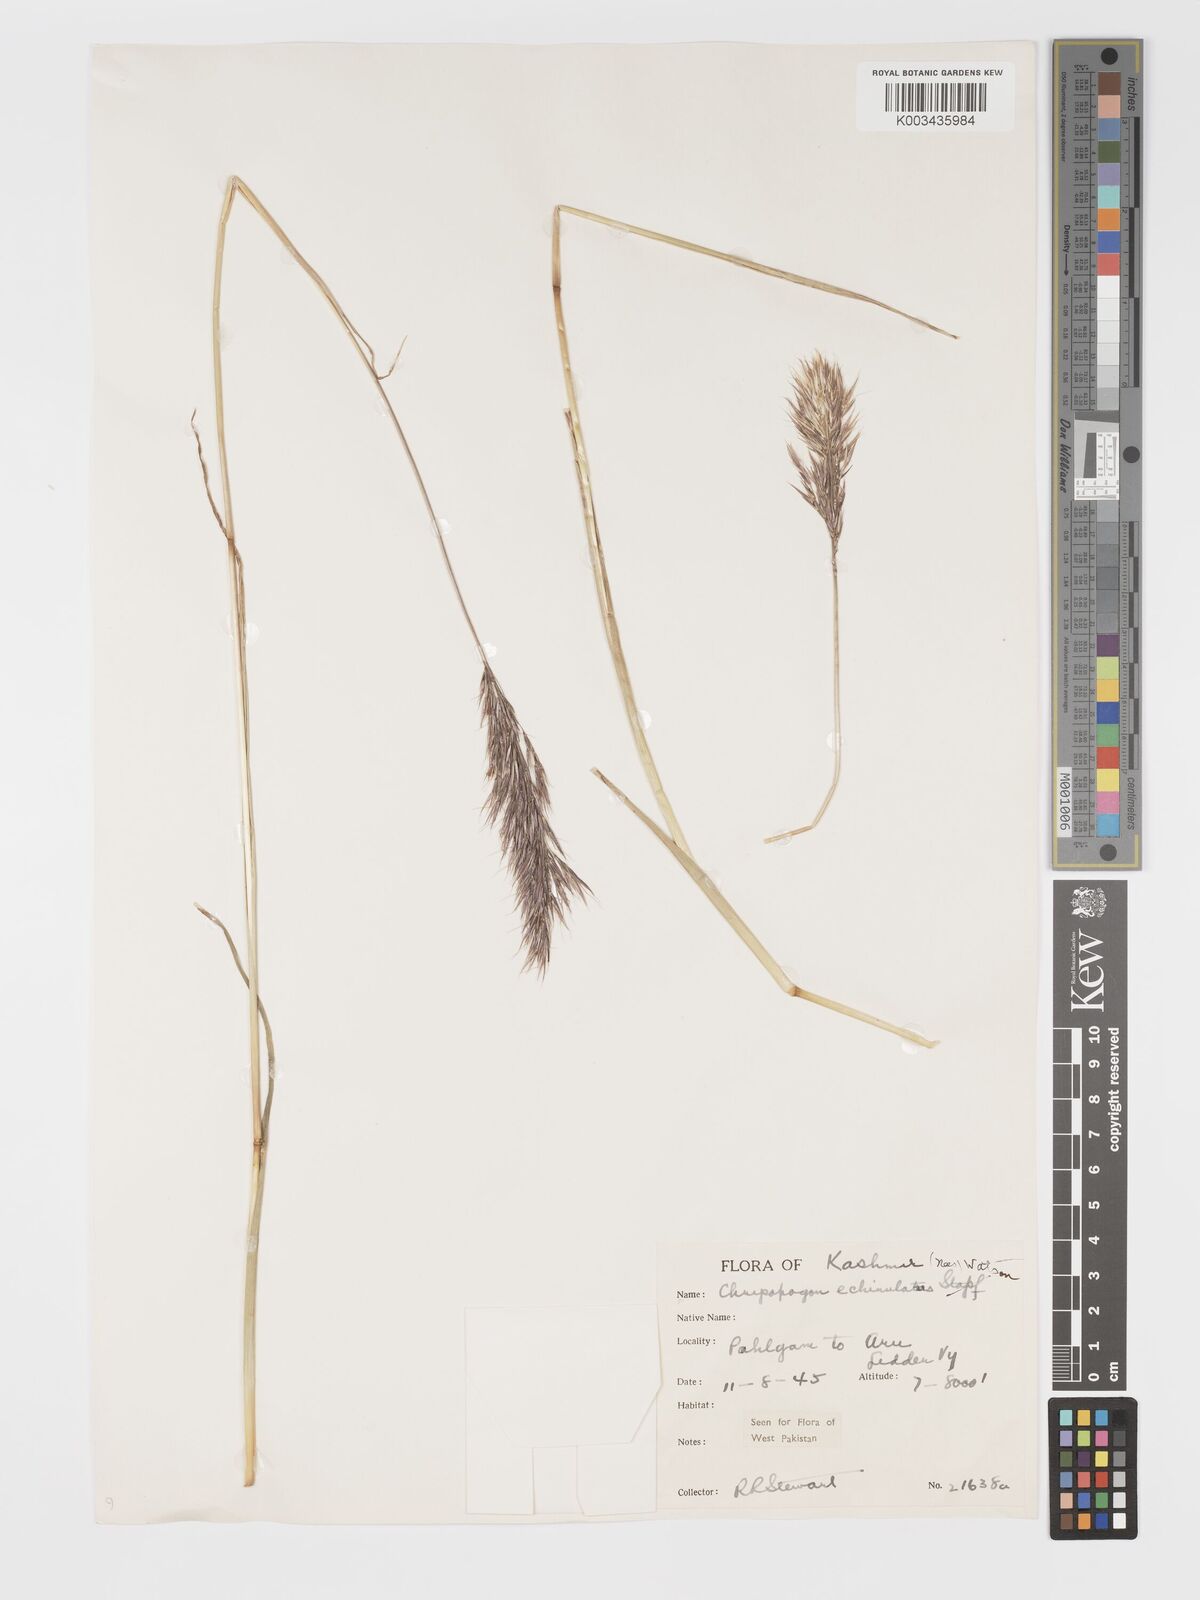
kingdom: Plantae
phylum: Tracheophyta
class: Liliopsida
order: Poales
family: Poaceae
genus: Chrysopogon
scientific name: Chrysopogon gryllus
